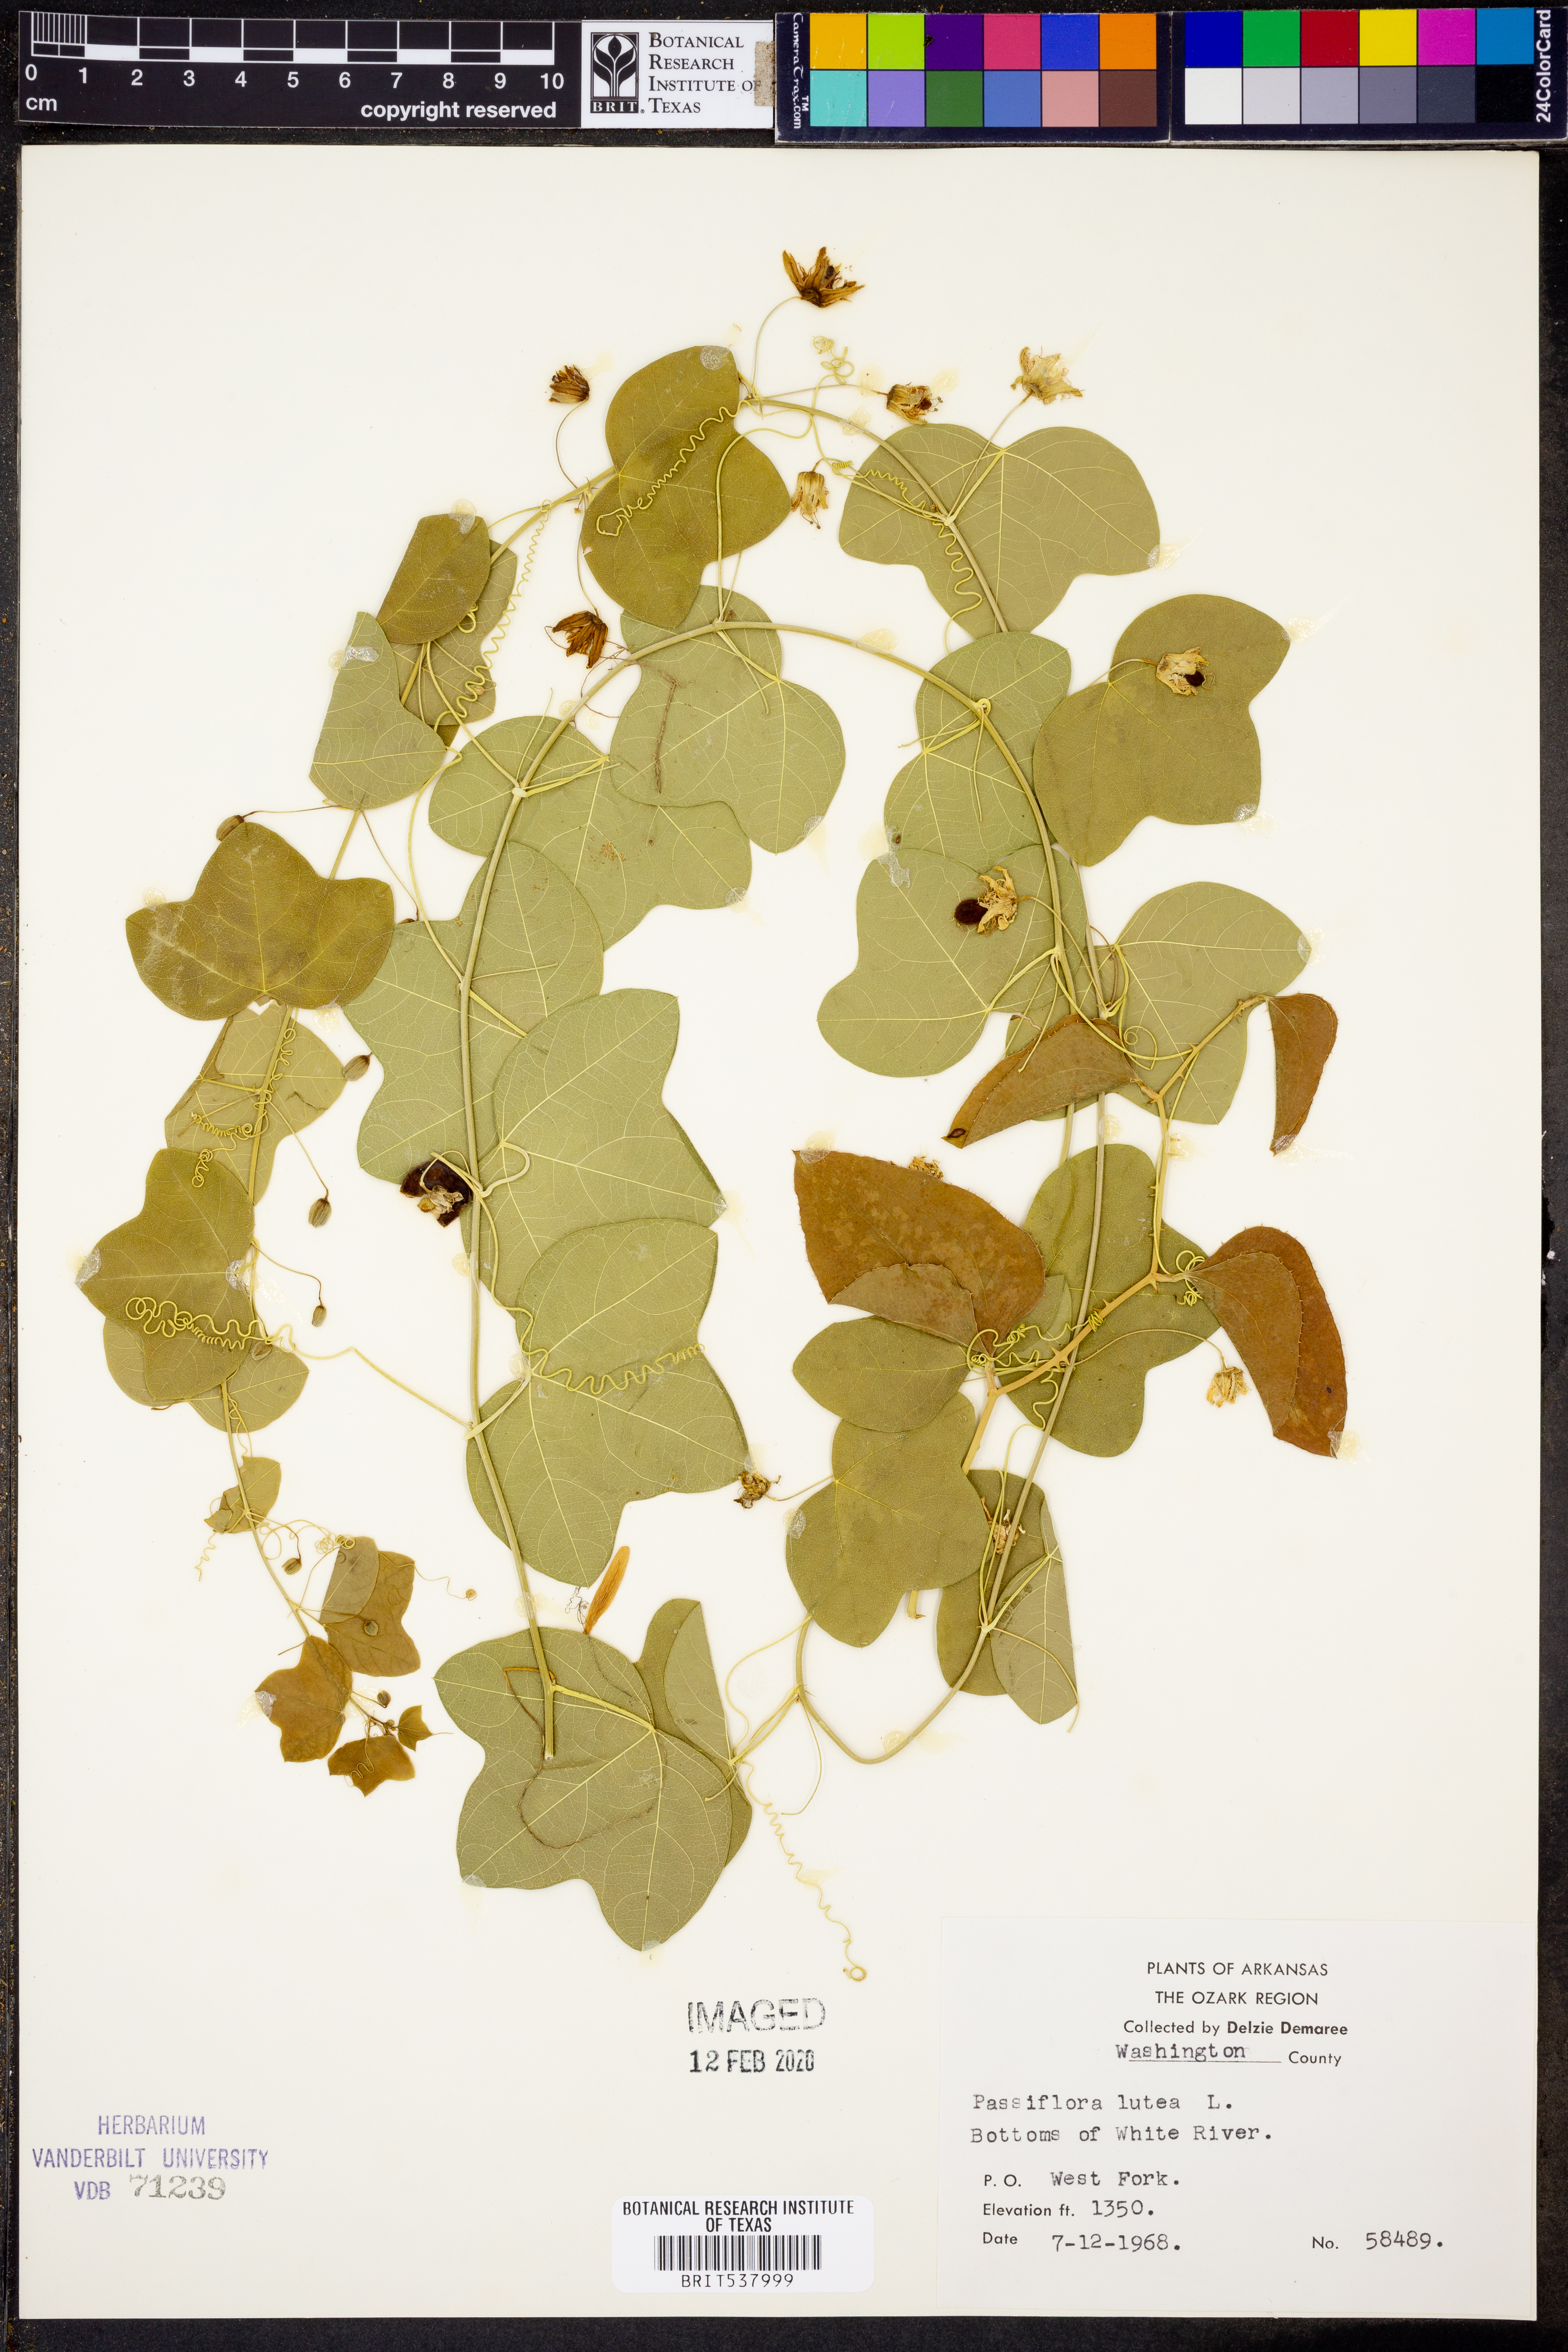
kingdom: Plantae
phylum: Tracheophyta
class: Magnoliopsida
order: Malpighiales
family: Passifloraceae
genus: Passiflora
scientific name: Passiflora lutea
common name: Yellow passionflower
